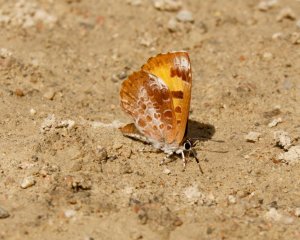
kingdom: Animalia
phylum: Arthropoda
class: Insecta
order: Lepidoptera
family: Lycaenidae
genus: Feniseca
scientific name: Feniseca tarquinius
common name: Harvester
